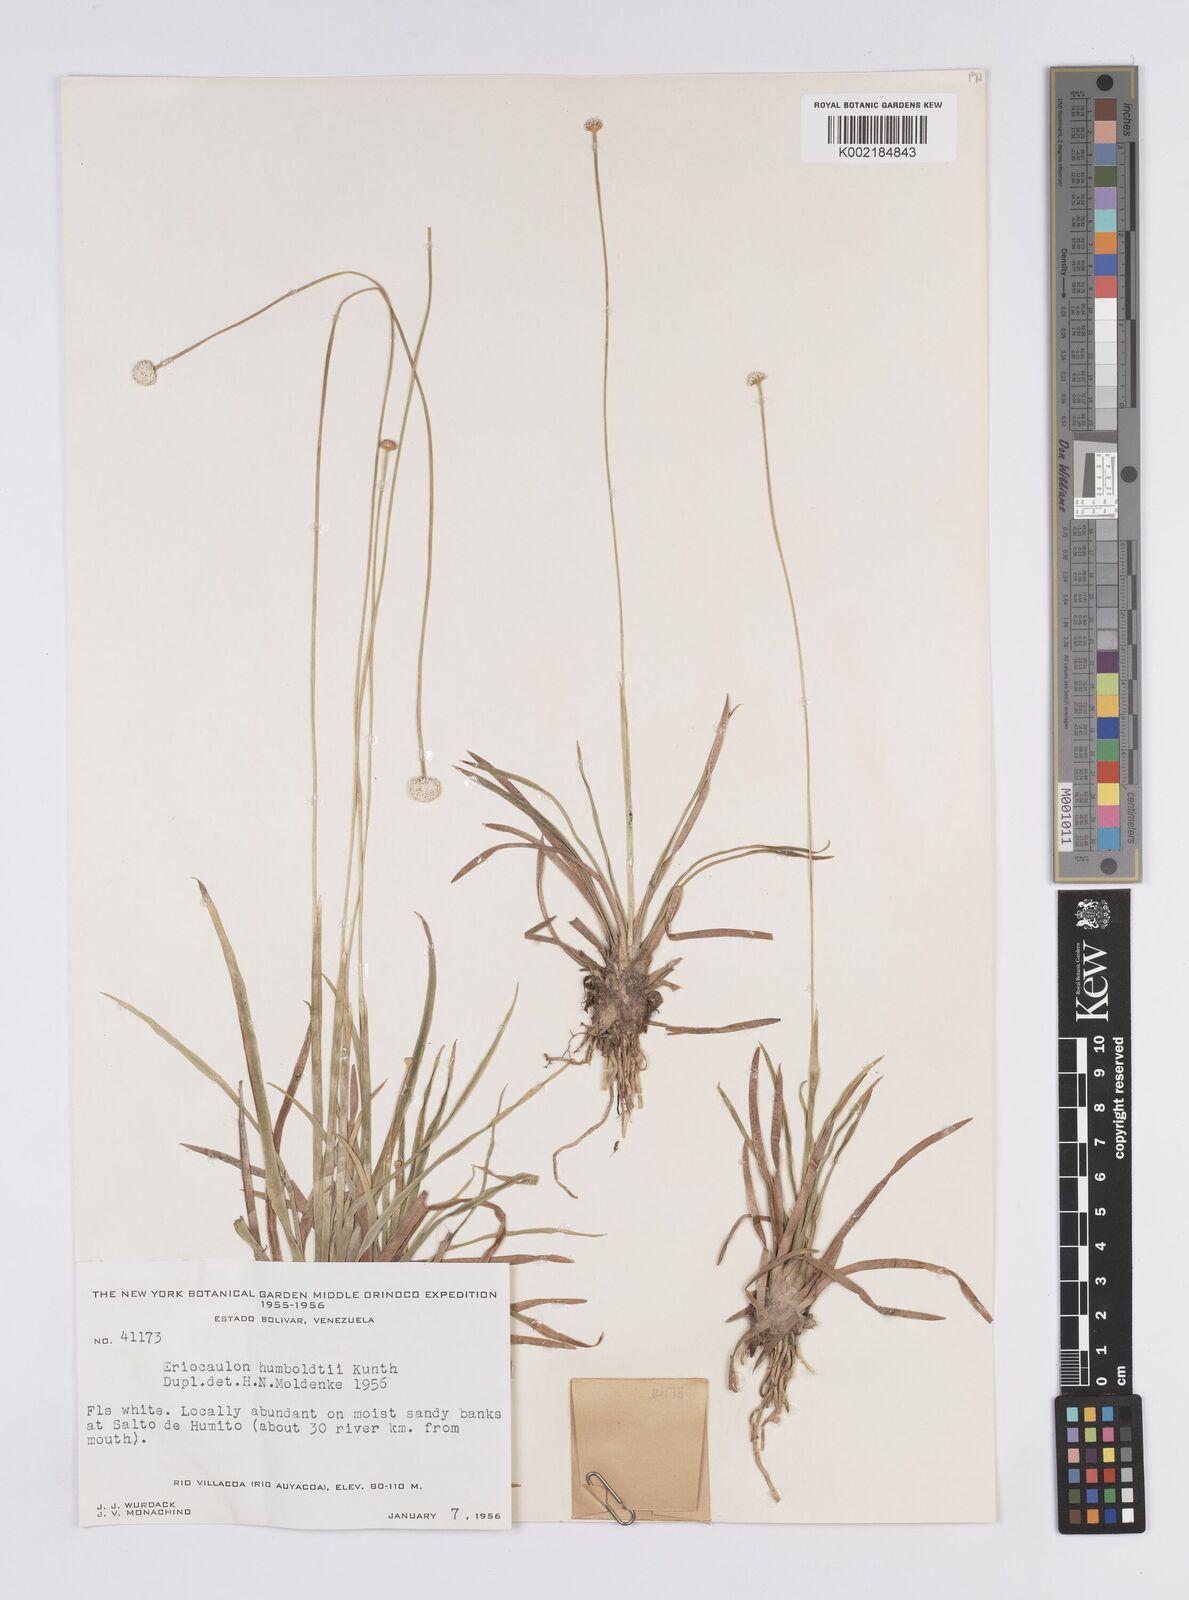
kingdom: Plantae
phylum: Tracheophyta
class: Liliopsida
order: Poales
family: Eriocaulaceae
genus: Eriocaulon
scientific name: Eriocaulon humboldtii
